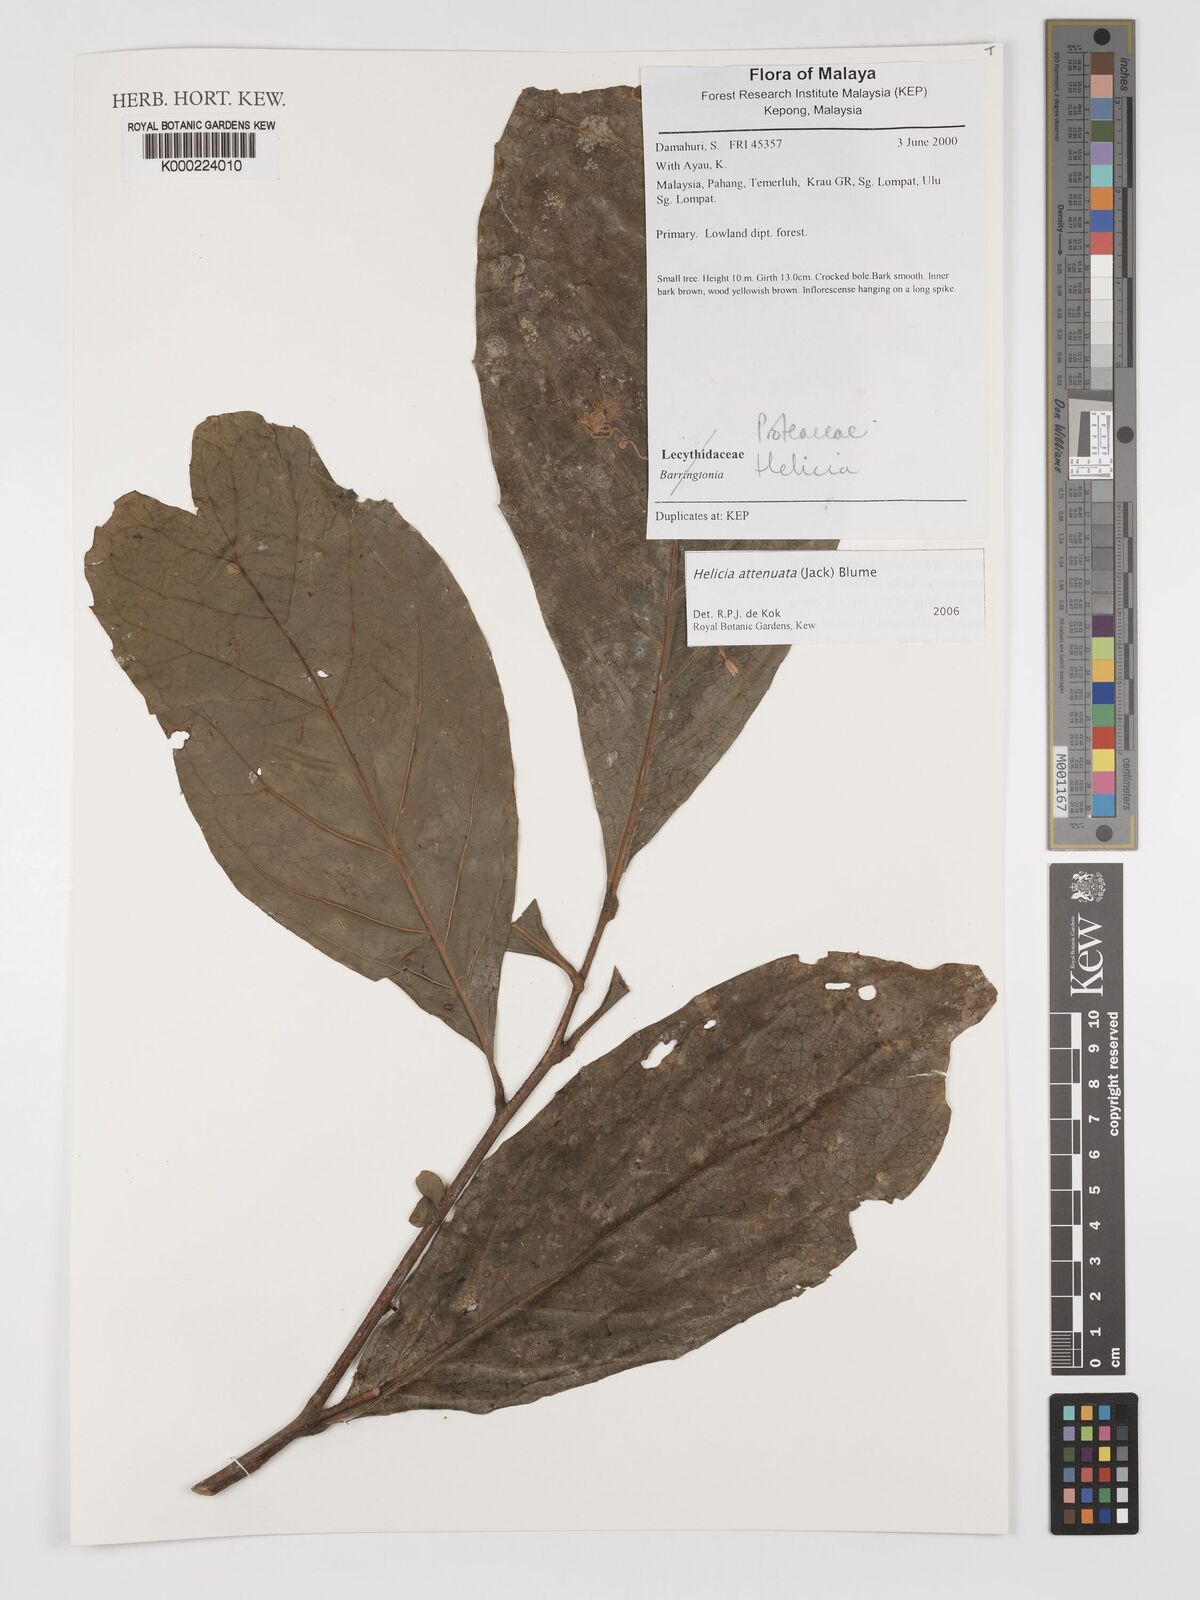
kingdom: Plantae
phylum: Tracheophyta
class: Magnoliopsida
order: Proteales
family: Proteaceae
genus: Helicia
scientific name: Helicia attenuata
